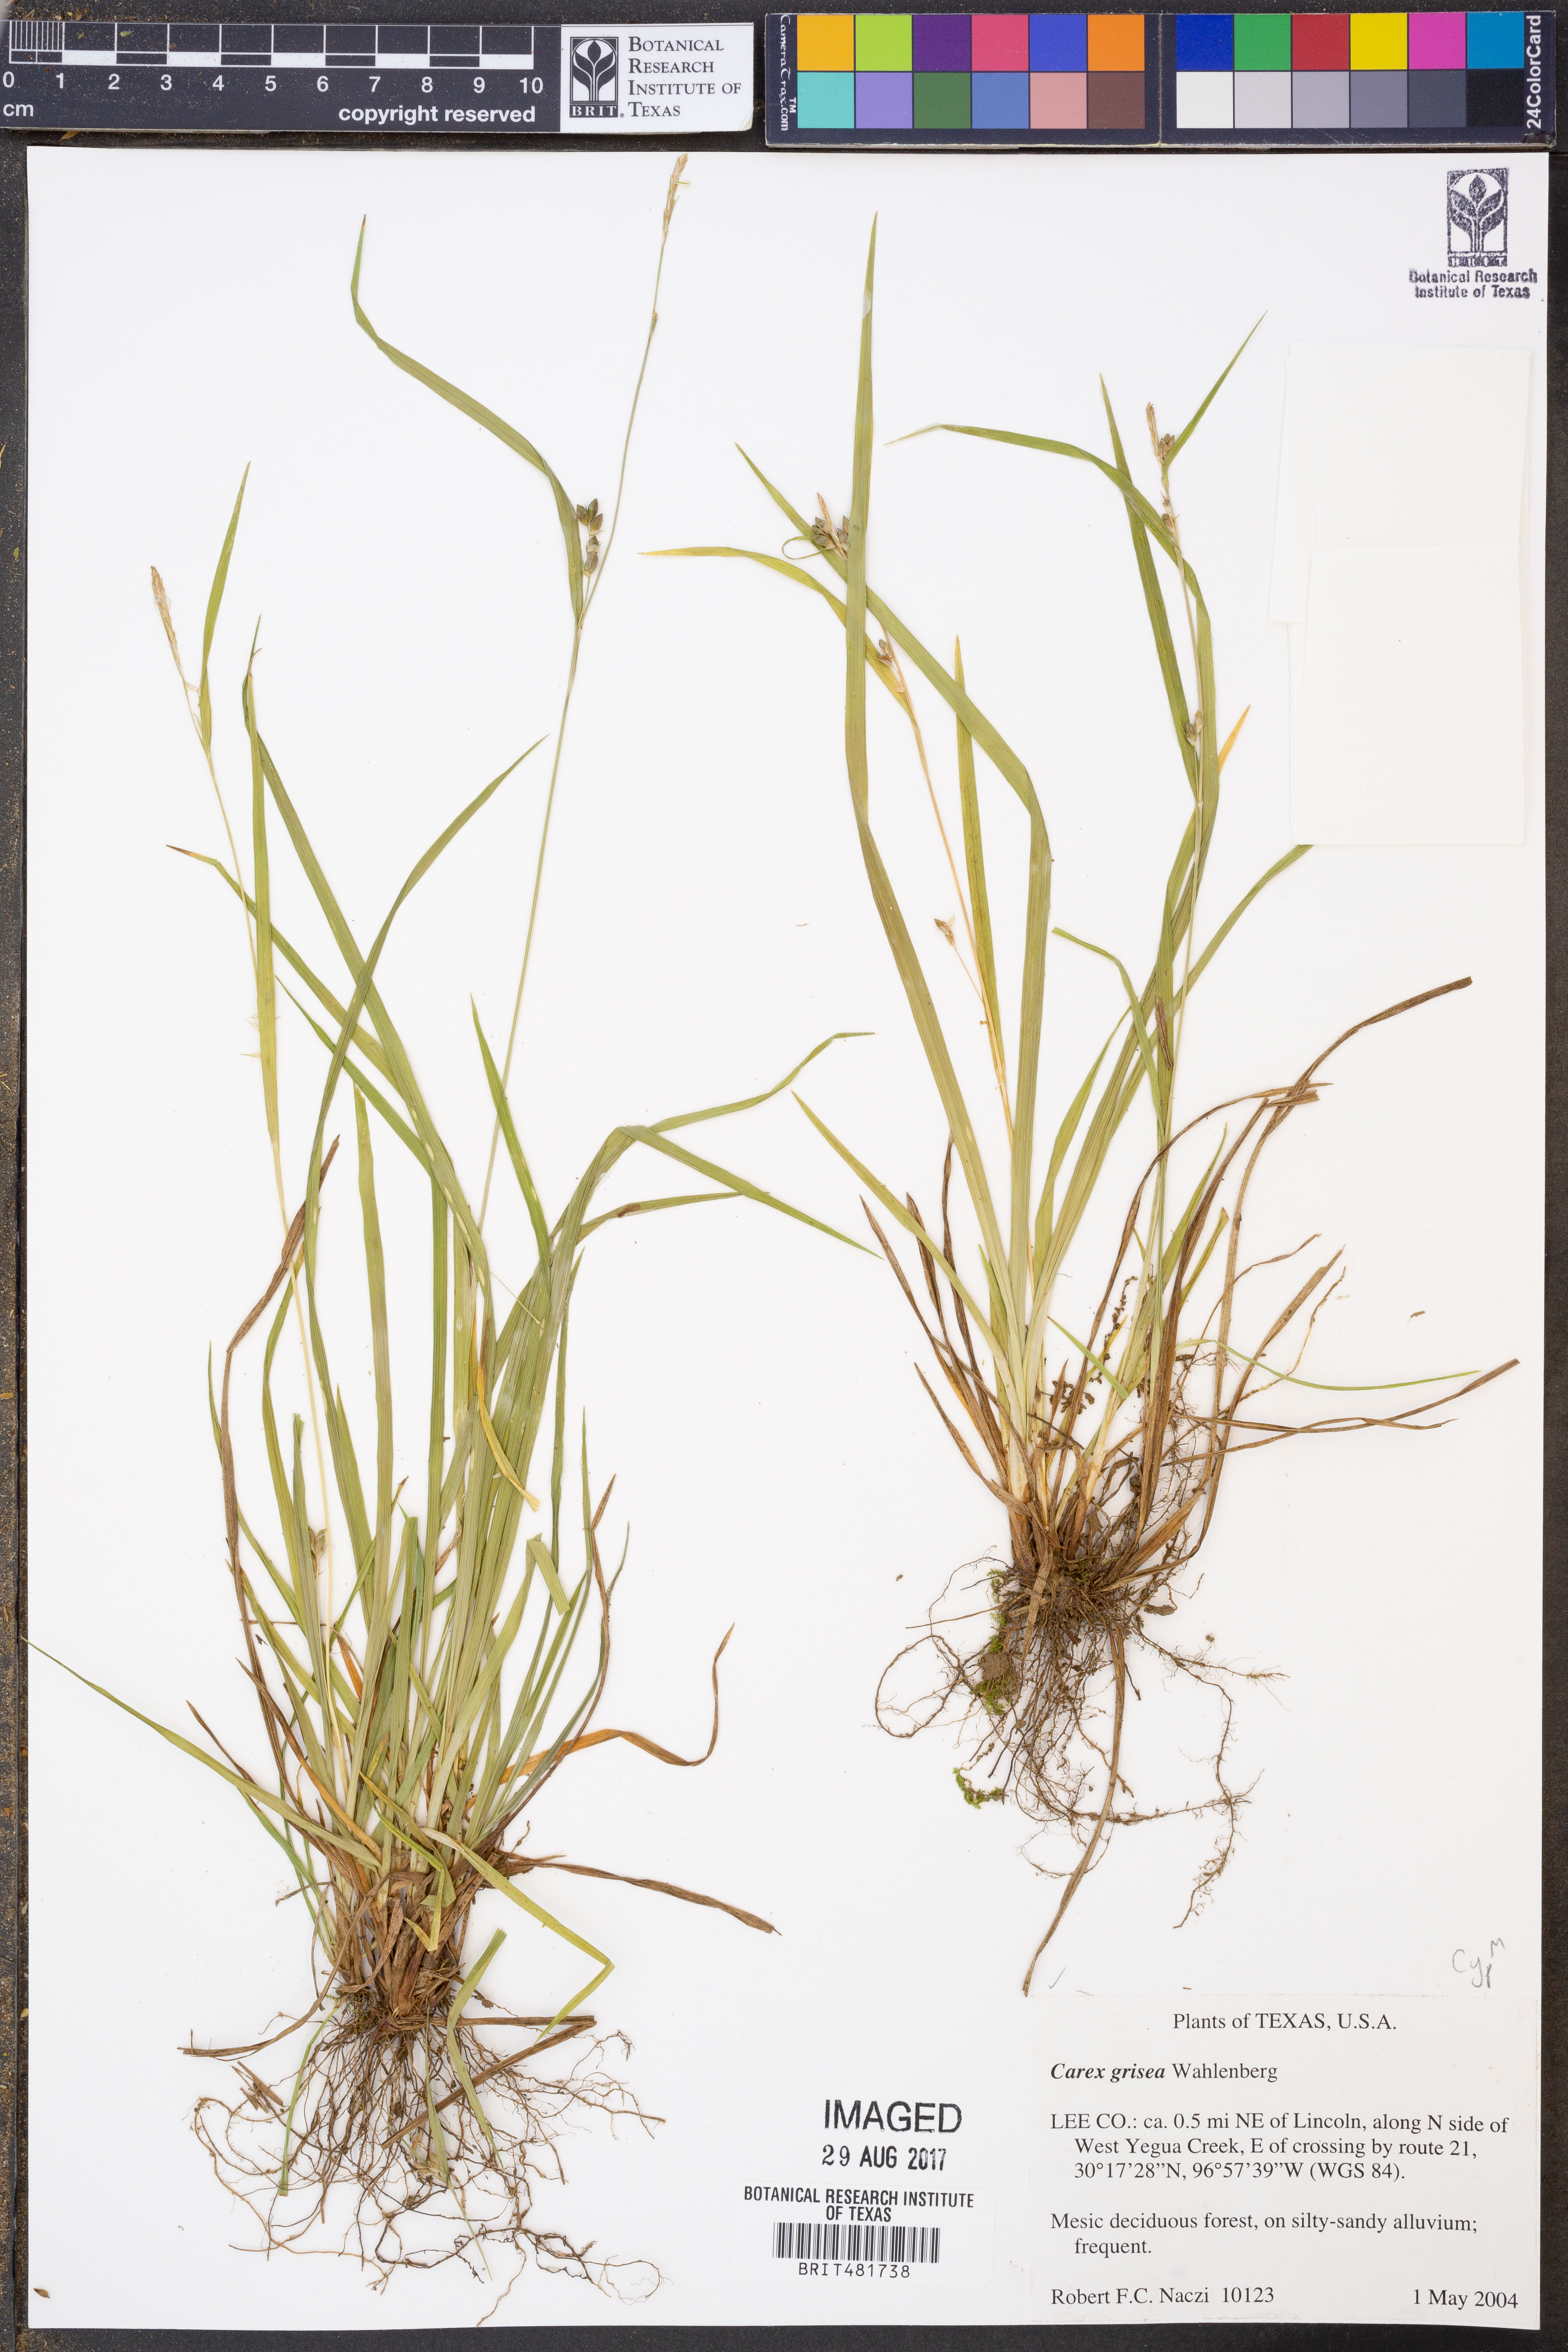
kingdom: Plantae
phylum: Tracheophyta
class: Liliopsida
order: Poales
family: Cyperaceae
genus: Carex
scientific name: Carex grisea
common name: Eastern narrow-leaved sedge
